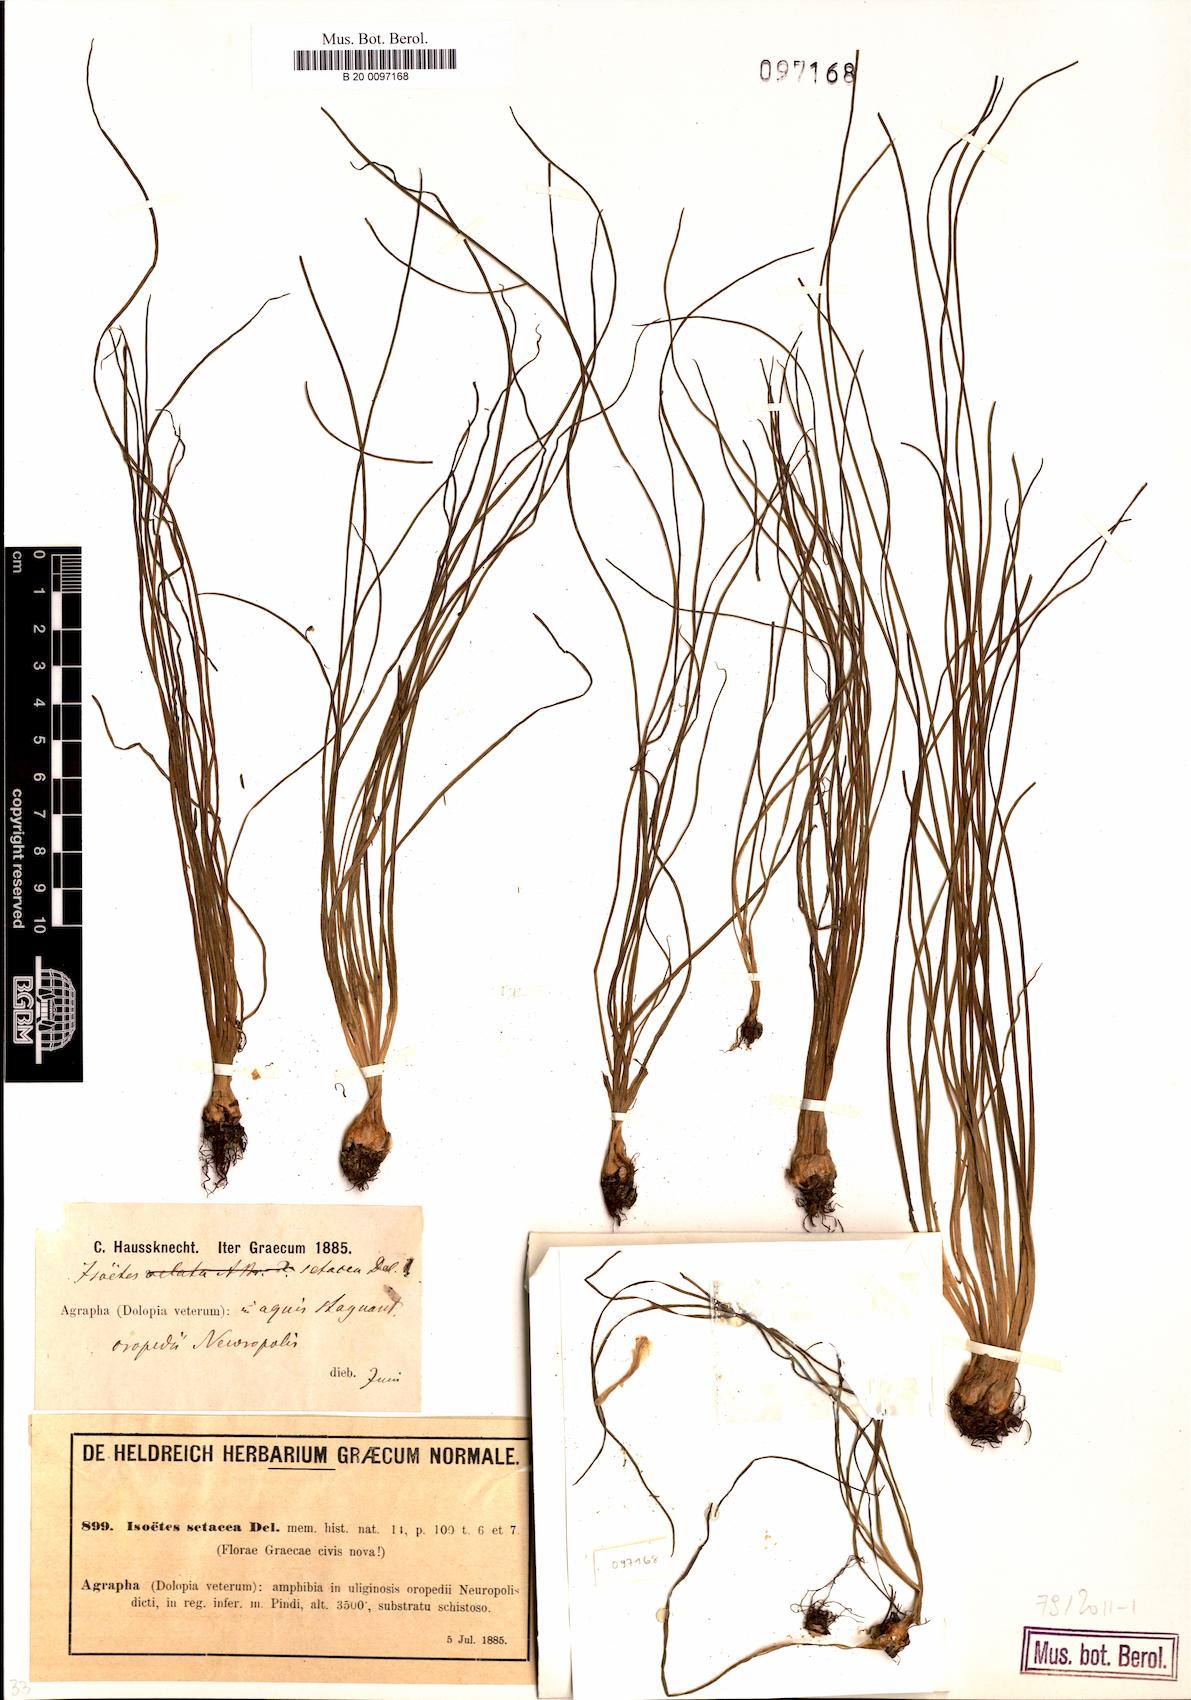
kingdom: Plantae
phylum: Tracheophyta
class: Lycopodiopsida
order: Isoetales
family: Isoetaceae
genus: Isoetes
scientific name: Isoetes lacustris
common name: Common quillwort
